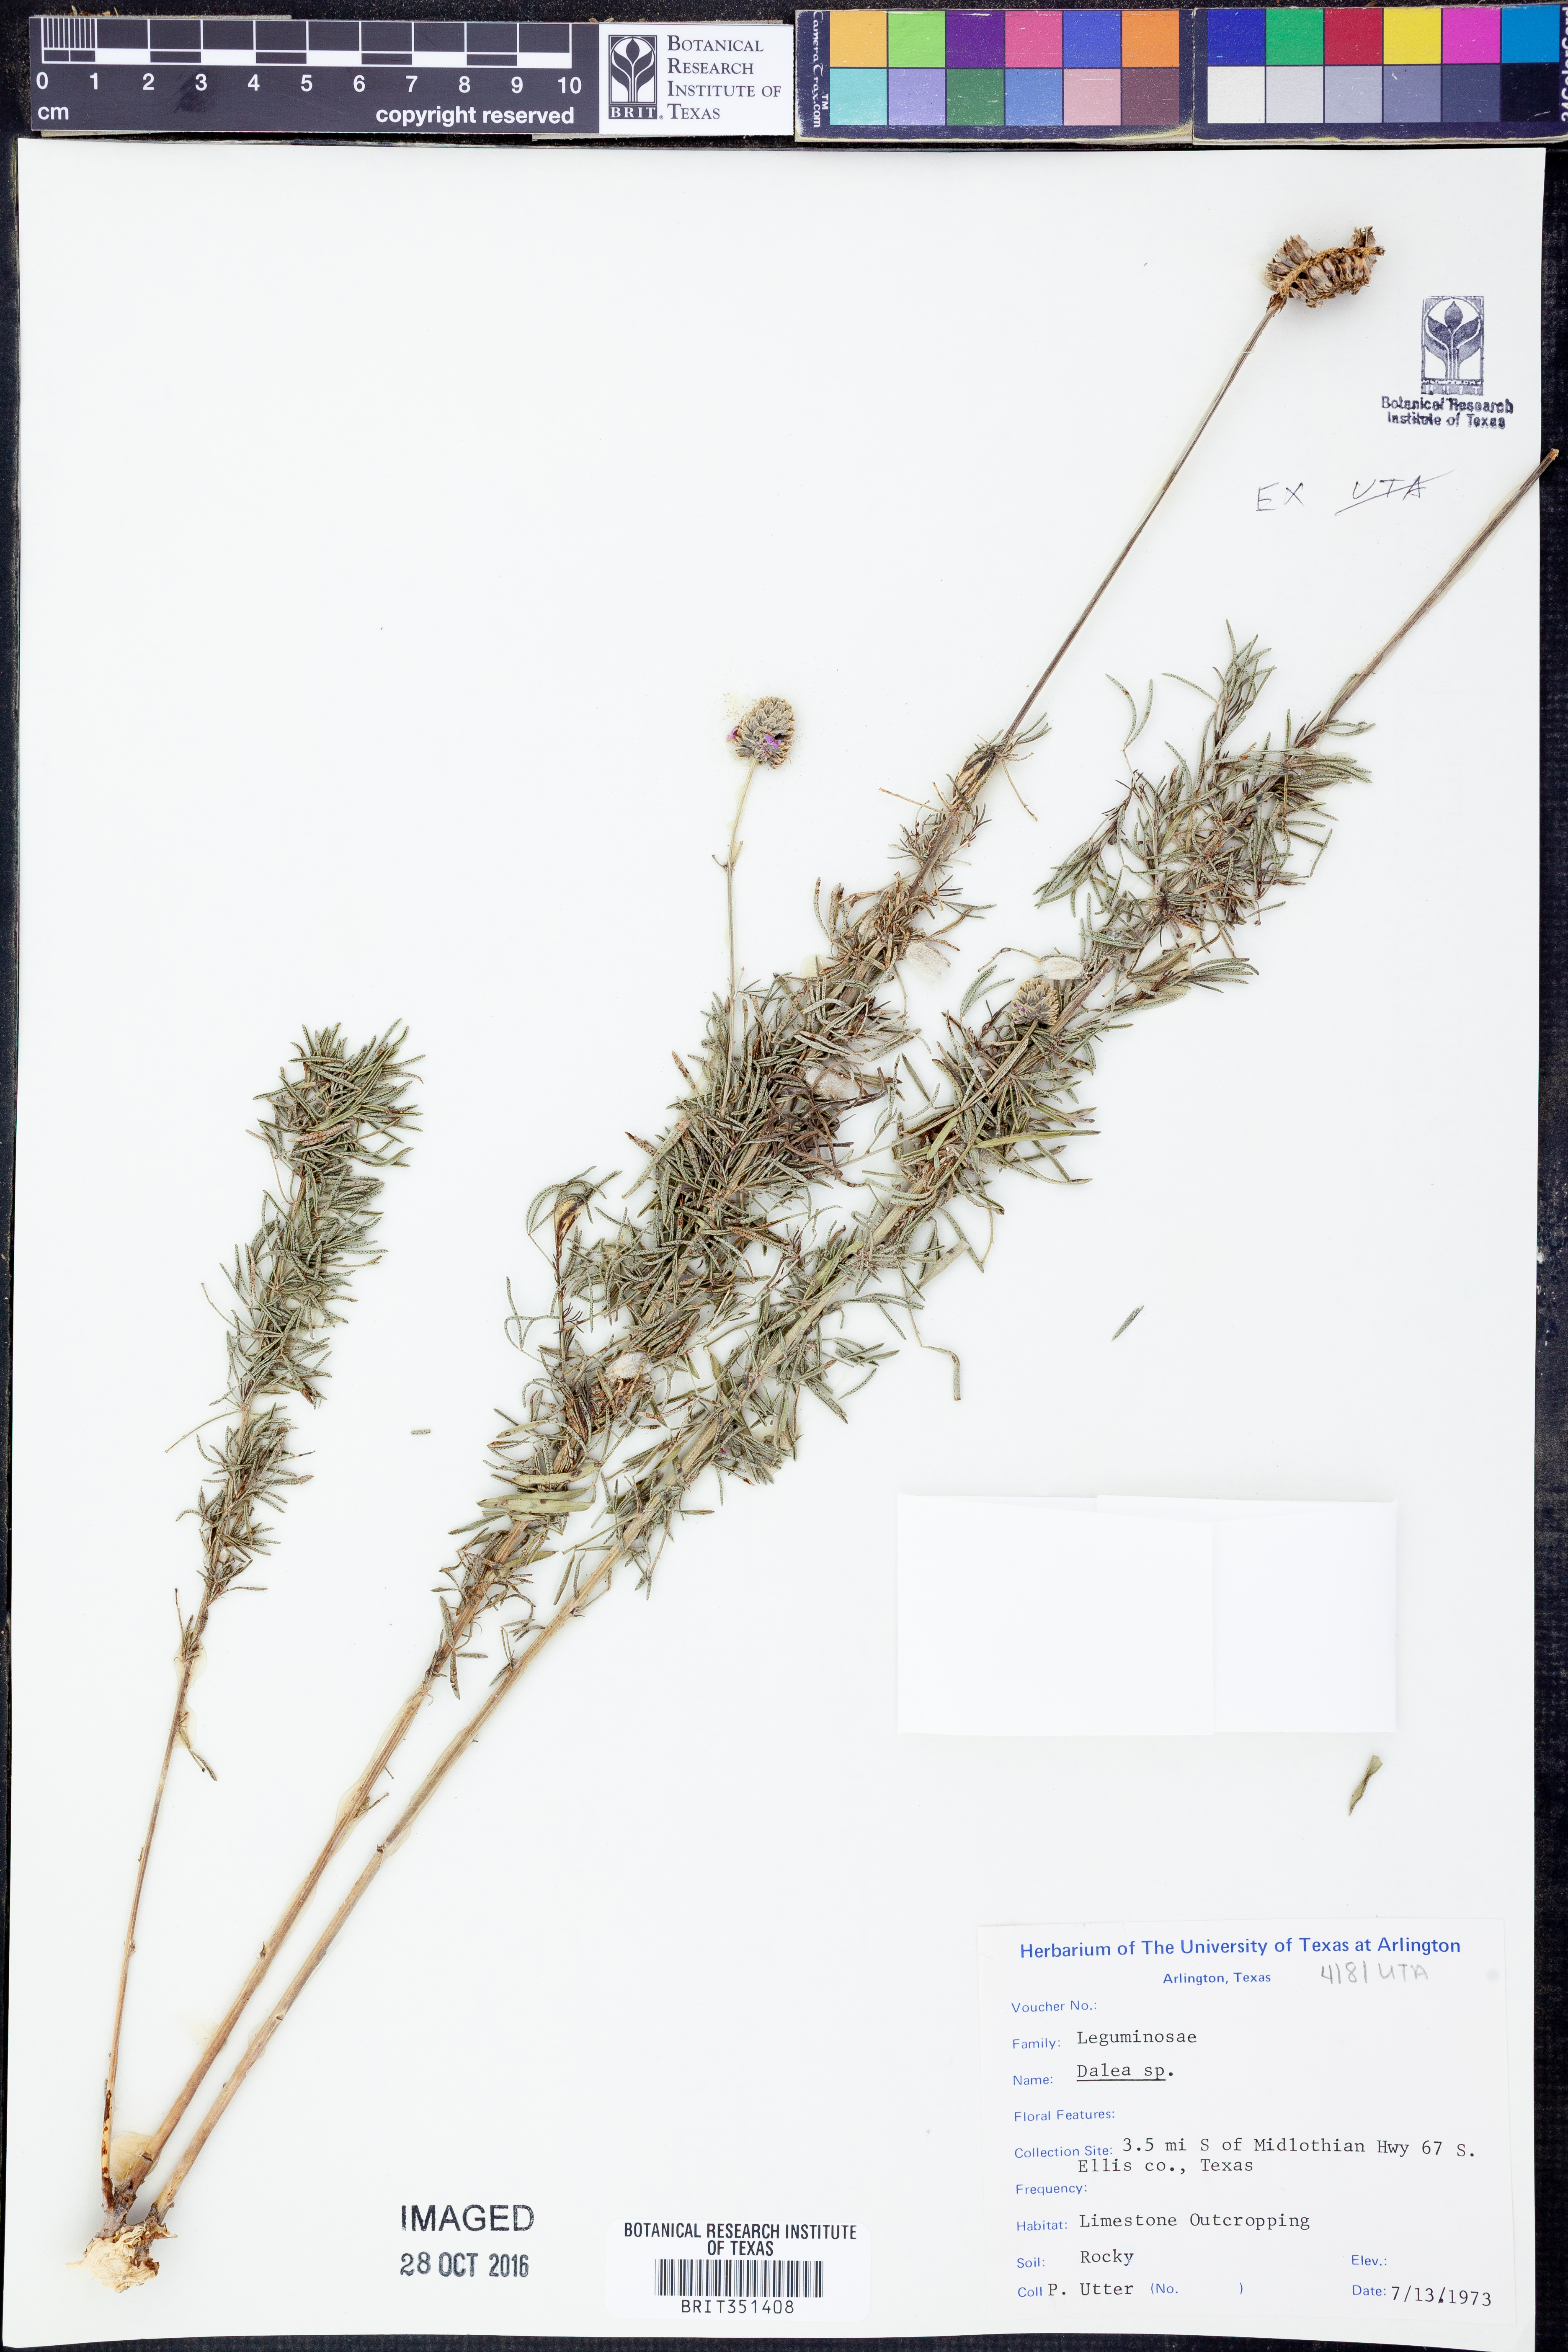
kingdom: Plantae
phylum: Tracheophyta
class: Magnoliopsida
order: Fabales
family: Fabaceae
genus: Dalea
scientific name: Dalea
